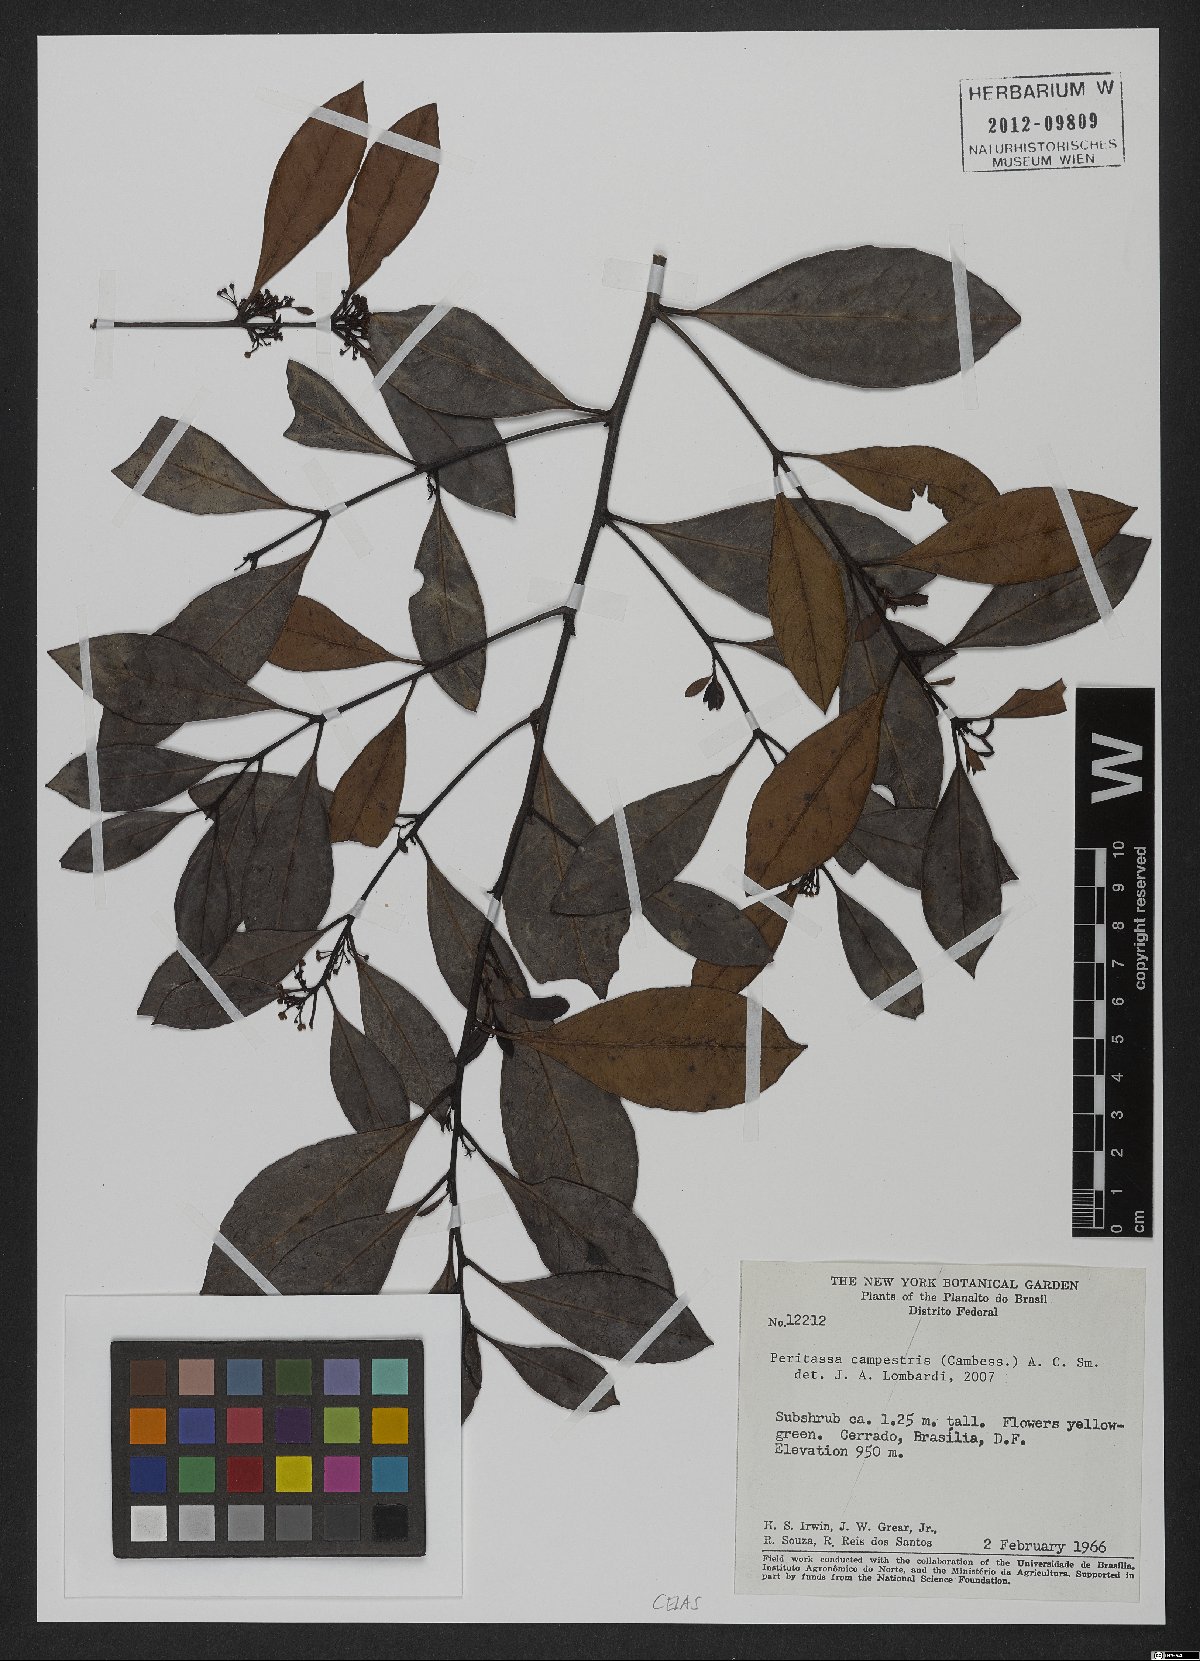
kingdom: Plantae
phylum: Tracheophyta
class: Magnoliopsida
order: Celastrales
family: Celastraceae
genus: Peritassa
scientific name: Peritassa campestris
